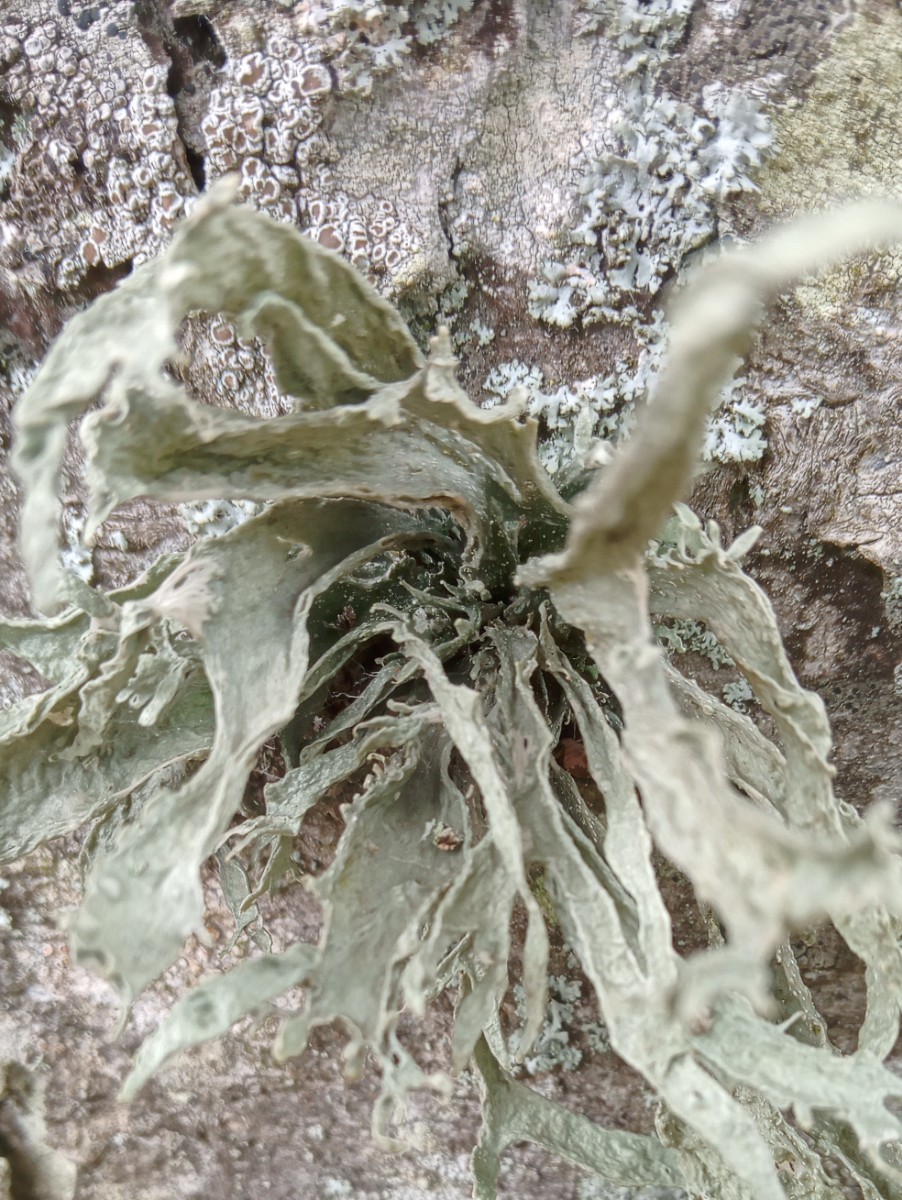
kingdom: Fungi
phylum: Ascomycota
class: Lecanoromycetes
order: Lecanorales
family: Ramalinaceae
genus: Ramalina
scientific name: Ramalina fraxinea
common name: stor grenlav
